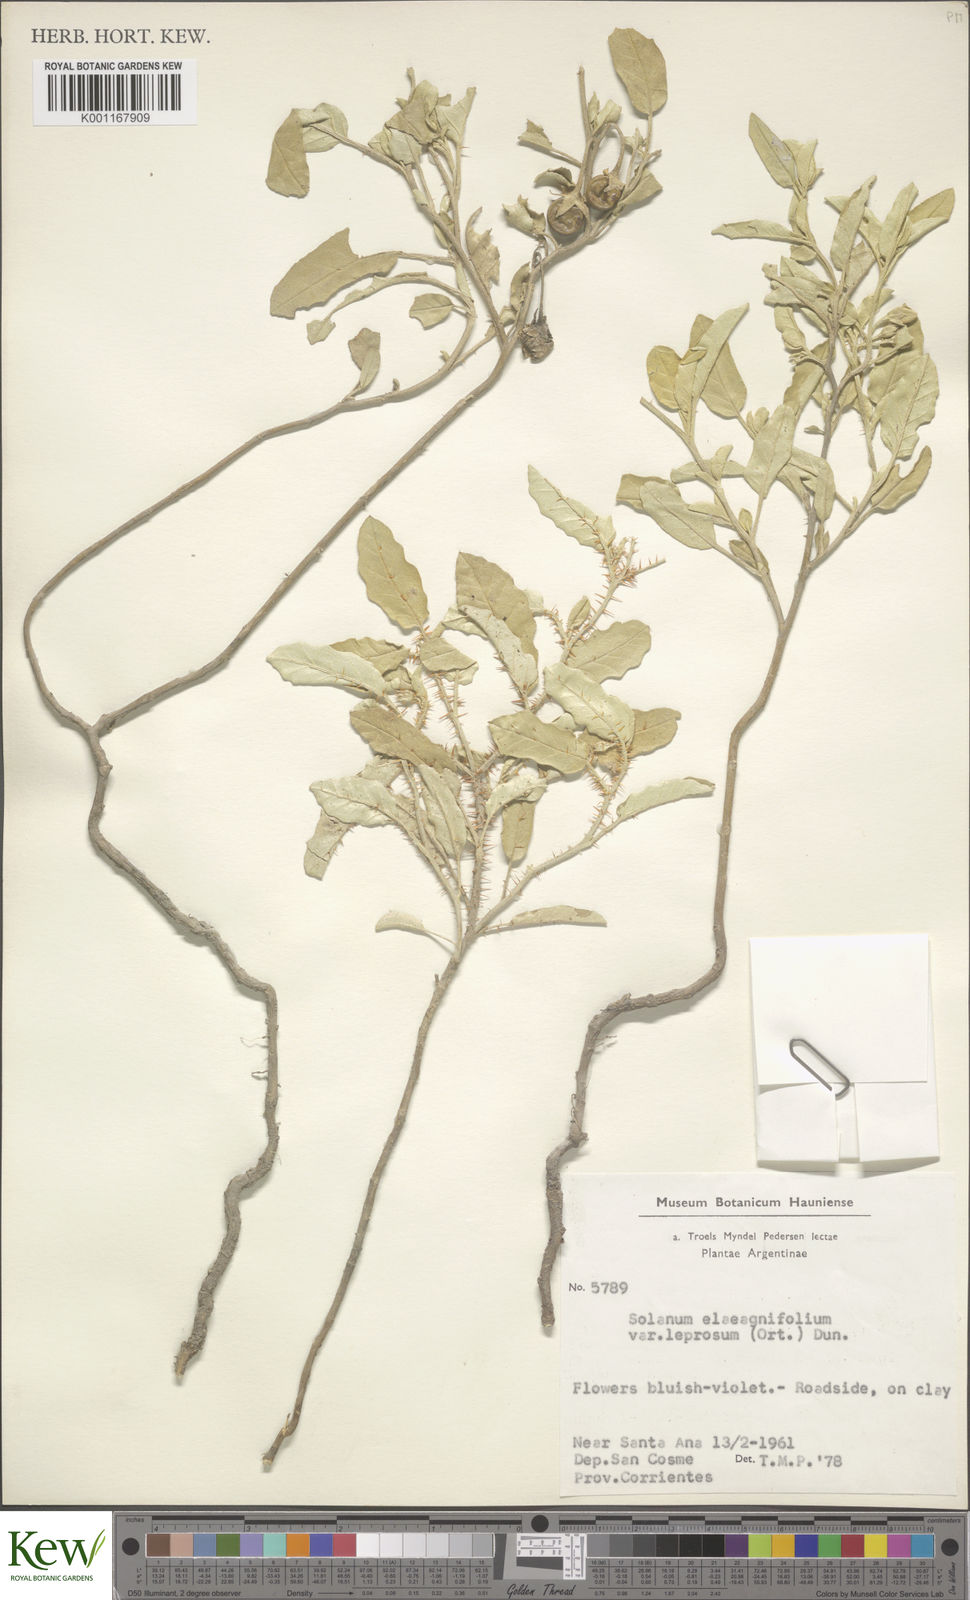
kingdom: Plantae
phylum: Tracheophyta
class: Magnoliopsida
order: Solanales
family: Solanaceae
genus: Solanum
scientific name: Solanum elaeagnifolium
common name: Silverleaf nightshade
